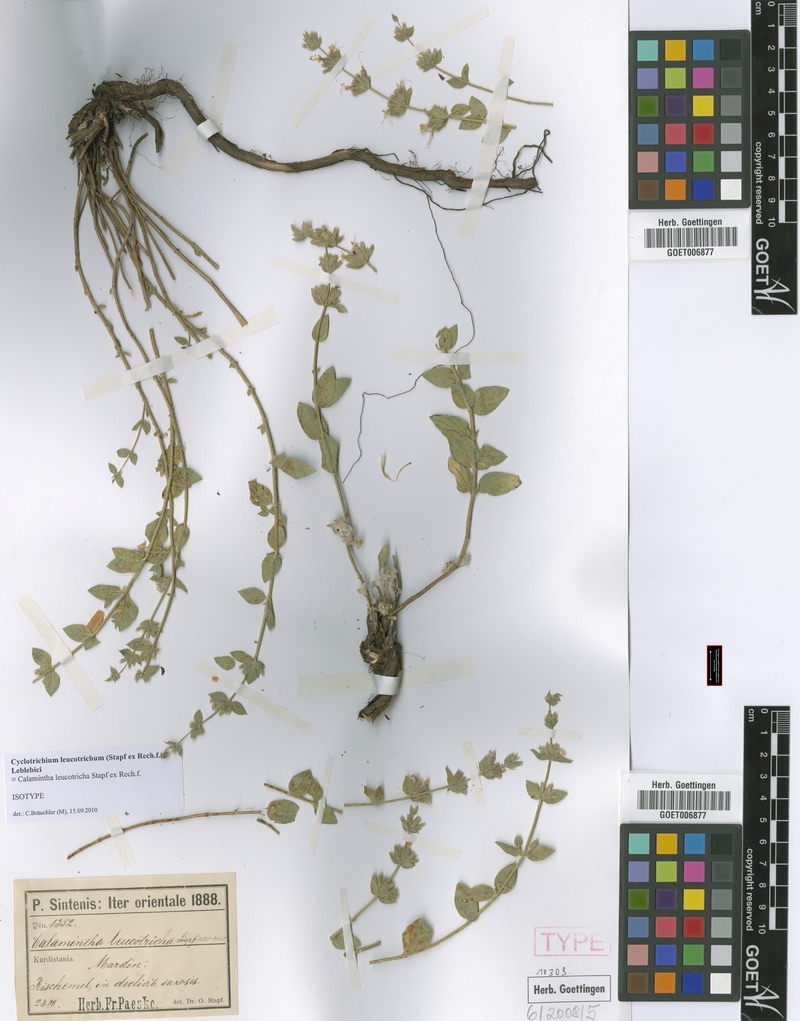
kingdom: Plantae
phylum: Tracheophyta
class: Magnoliopsida
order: Lamiales
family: Lamiaceae
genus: Cyclotrichium
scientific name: Cyclotrichium leucotrichum
